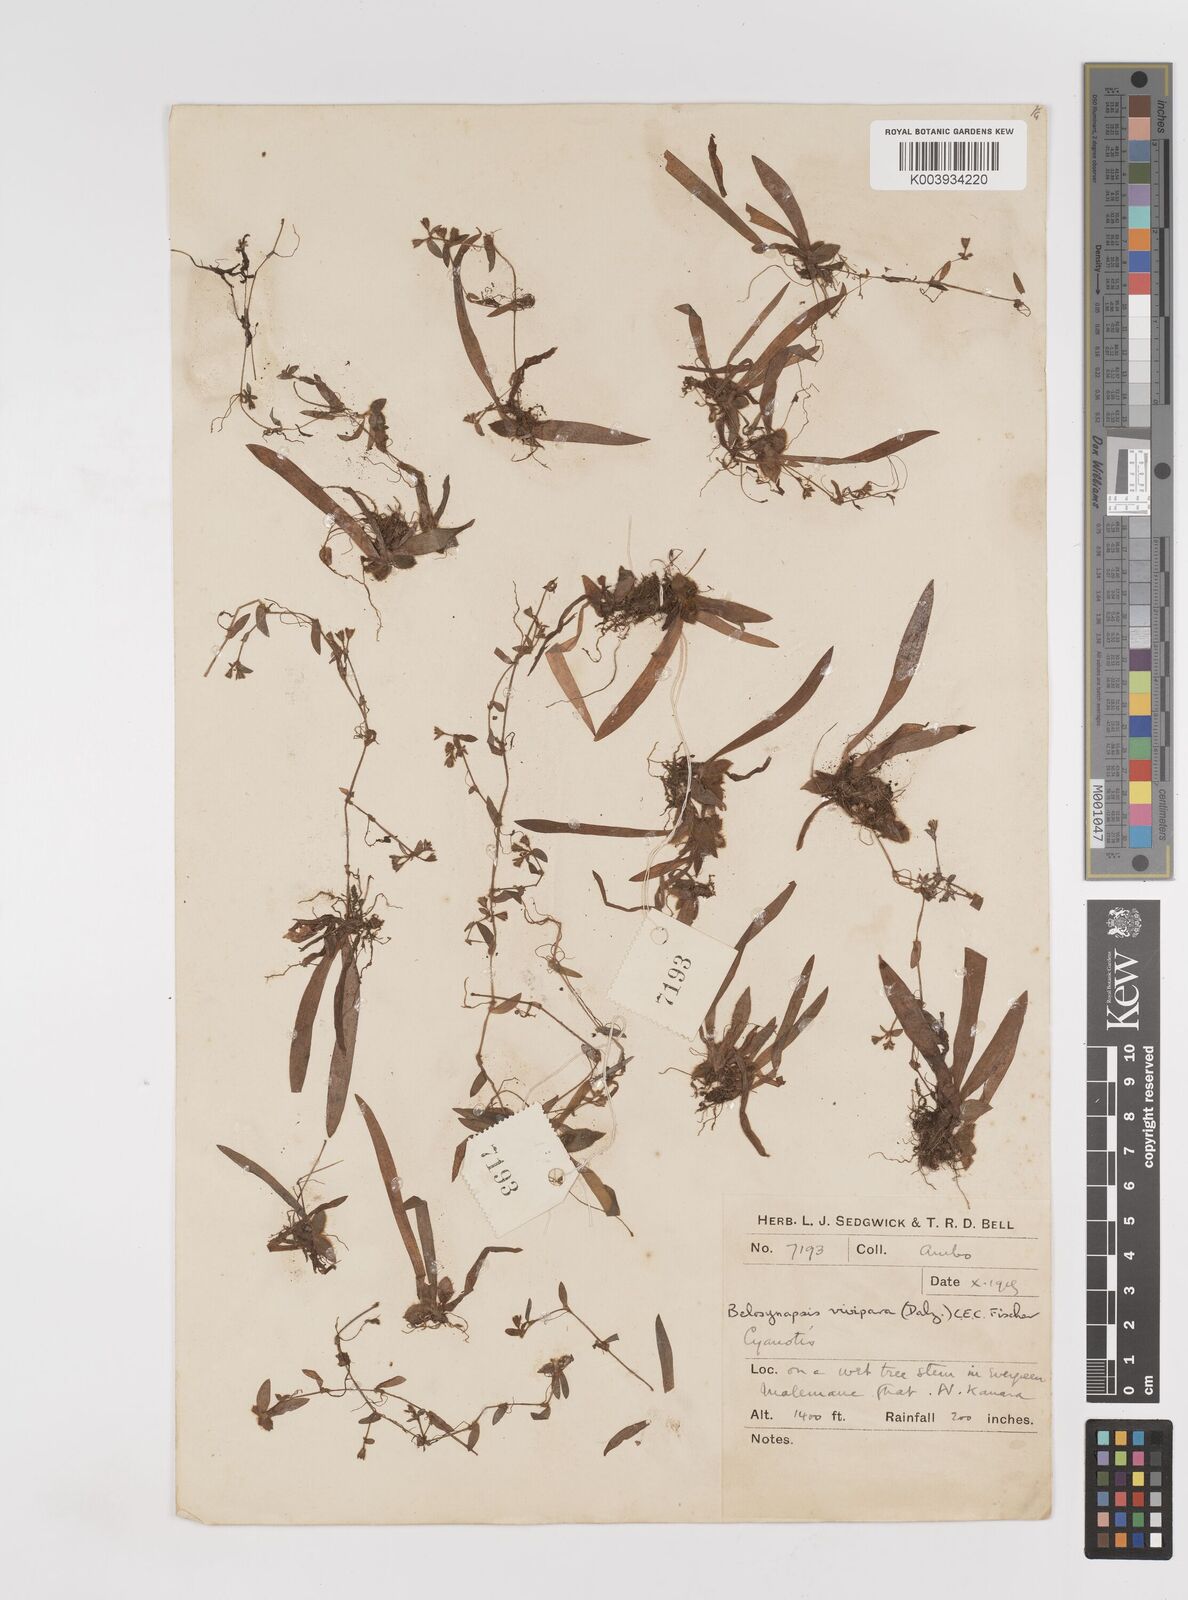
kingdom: Plantae
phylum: Tracheophyta
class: Liliopsida
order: Commelinales
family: Commelinaceae
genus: Cyanotis
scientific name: Cyanotis vivipara
